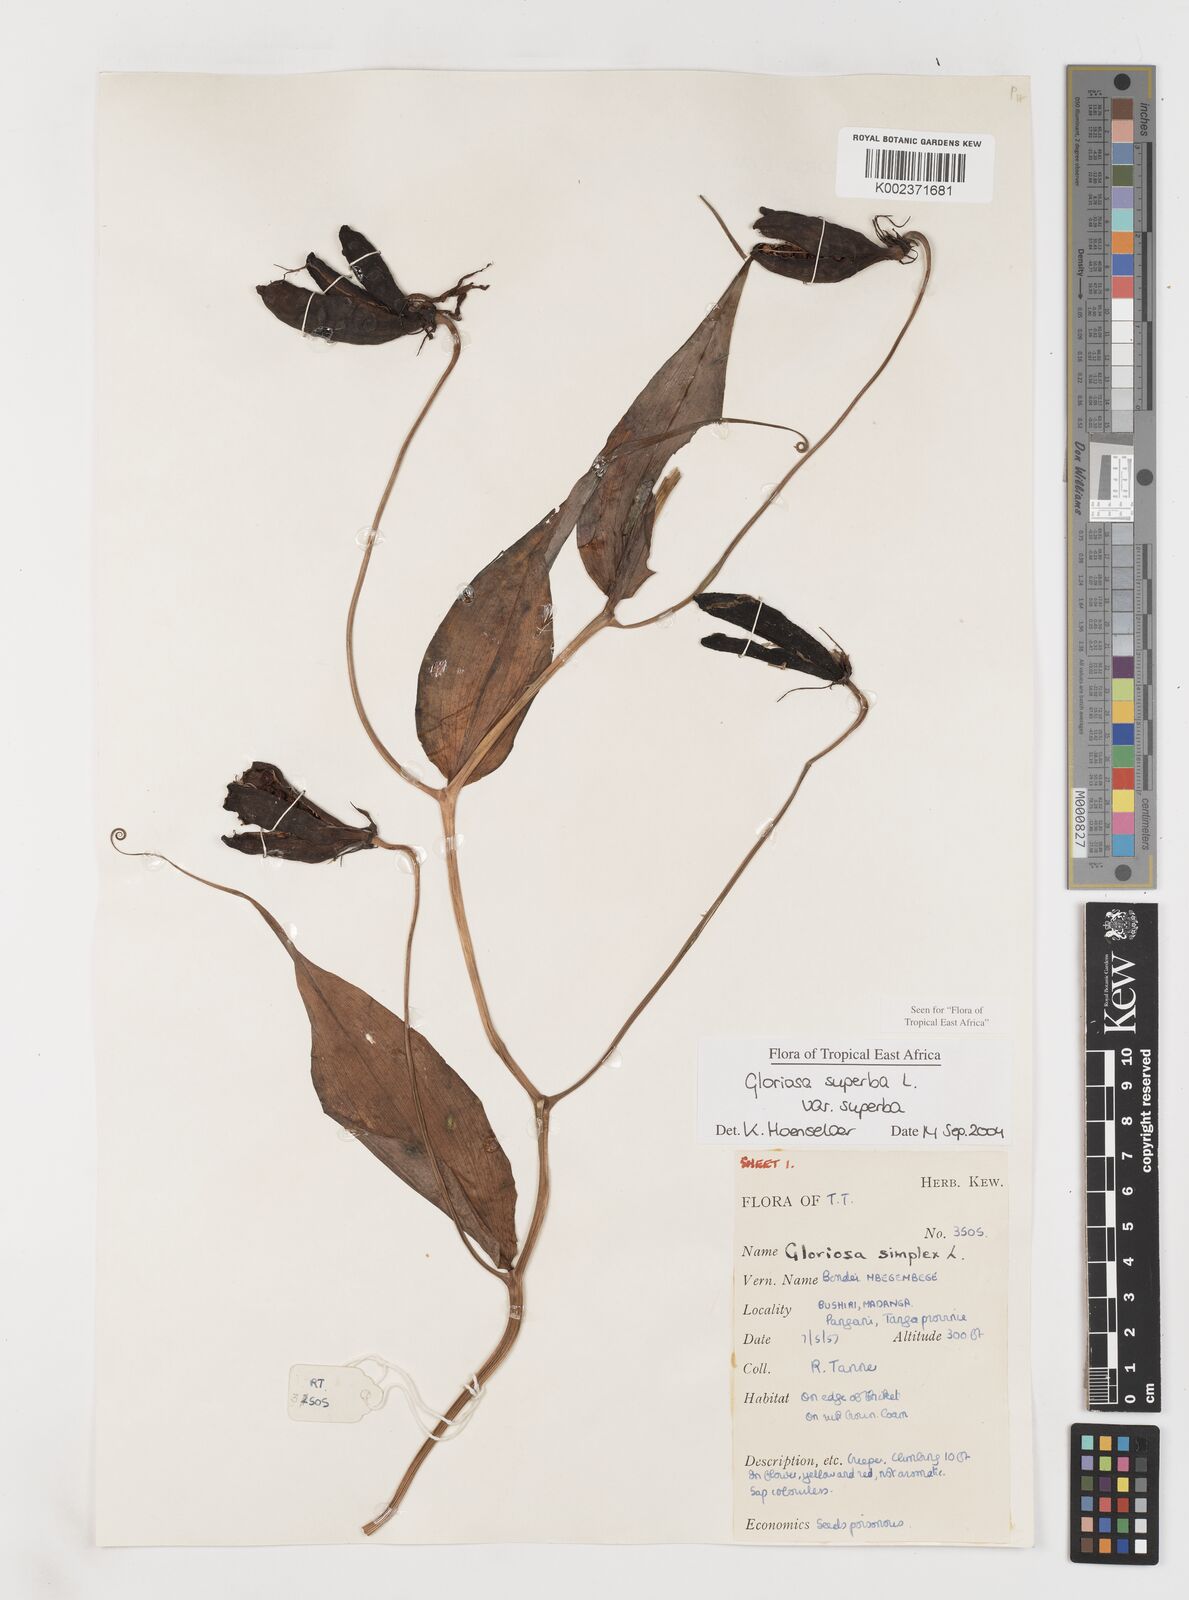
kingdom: Plantae
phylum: Tracheophyta
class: Liliopsida
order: Liliales
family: Colchicaceae
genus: Gloriosa
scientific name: Gloriosa simplex
